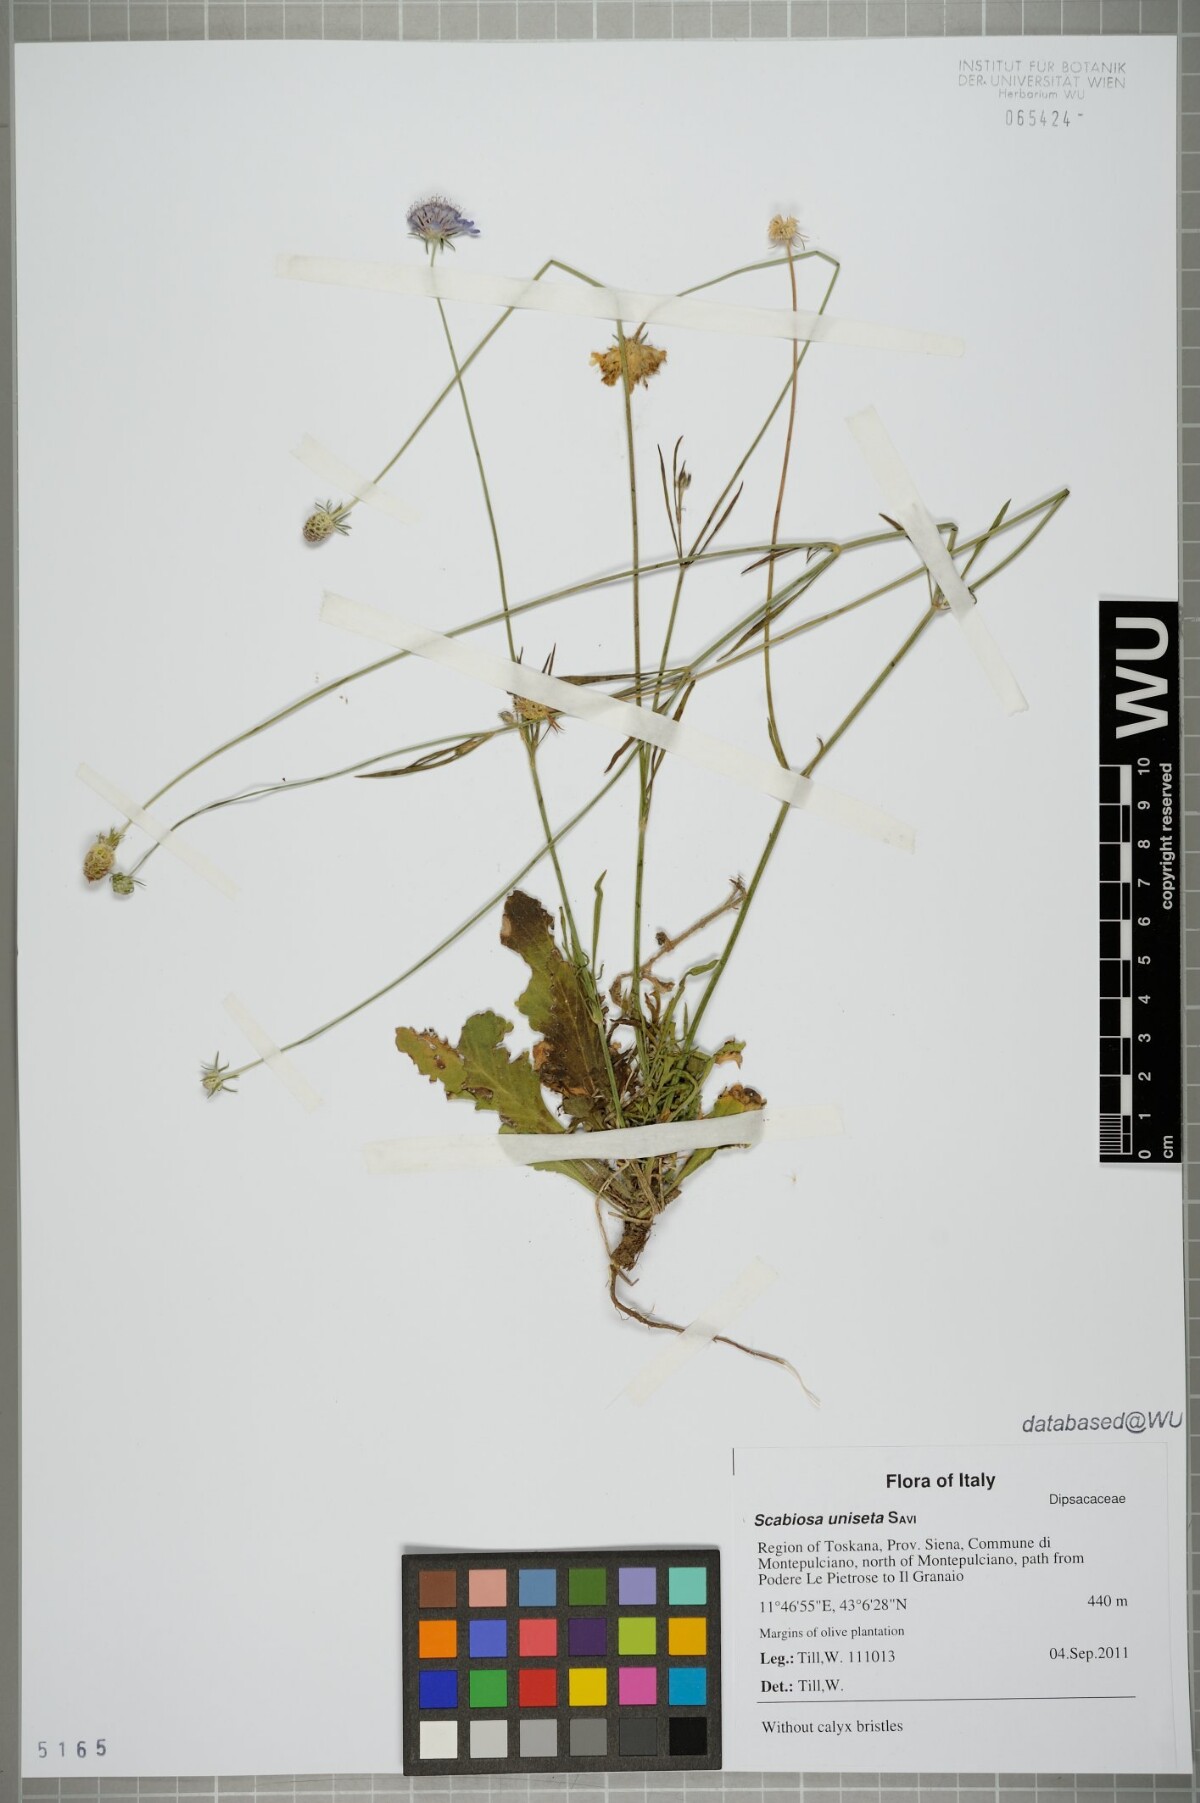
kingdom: Plantae
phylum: Tracheophyta
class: Magnoliopsida
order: Dipsacales
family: Caprifoliaceae
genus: Scabiosa
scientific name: Scabiosa columbaria
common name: Small scabious
